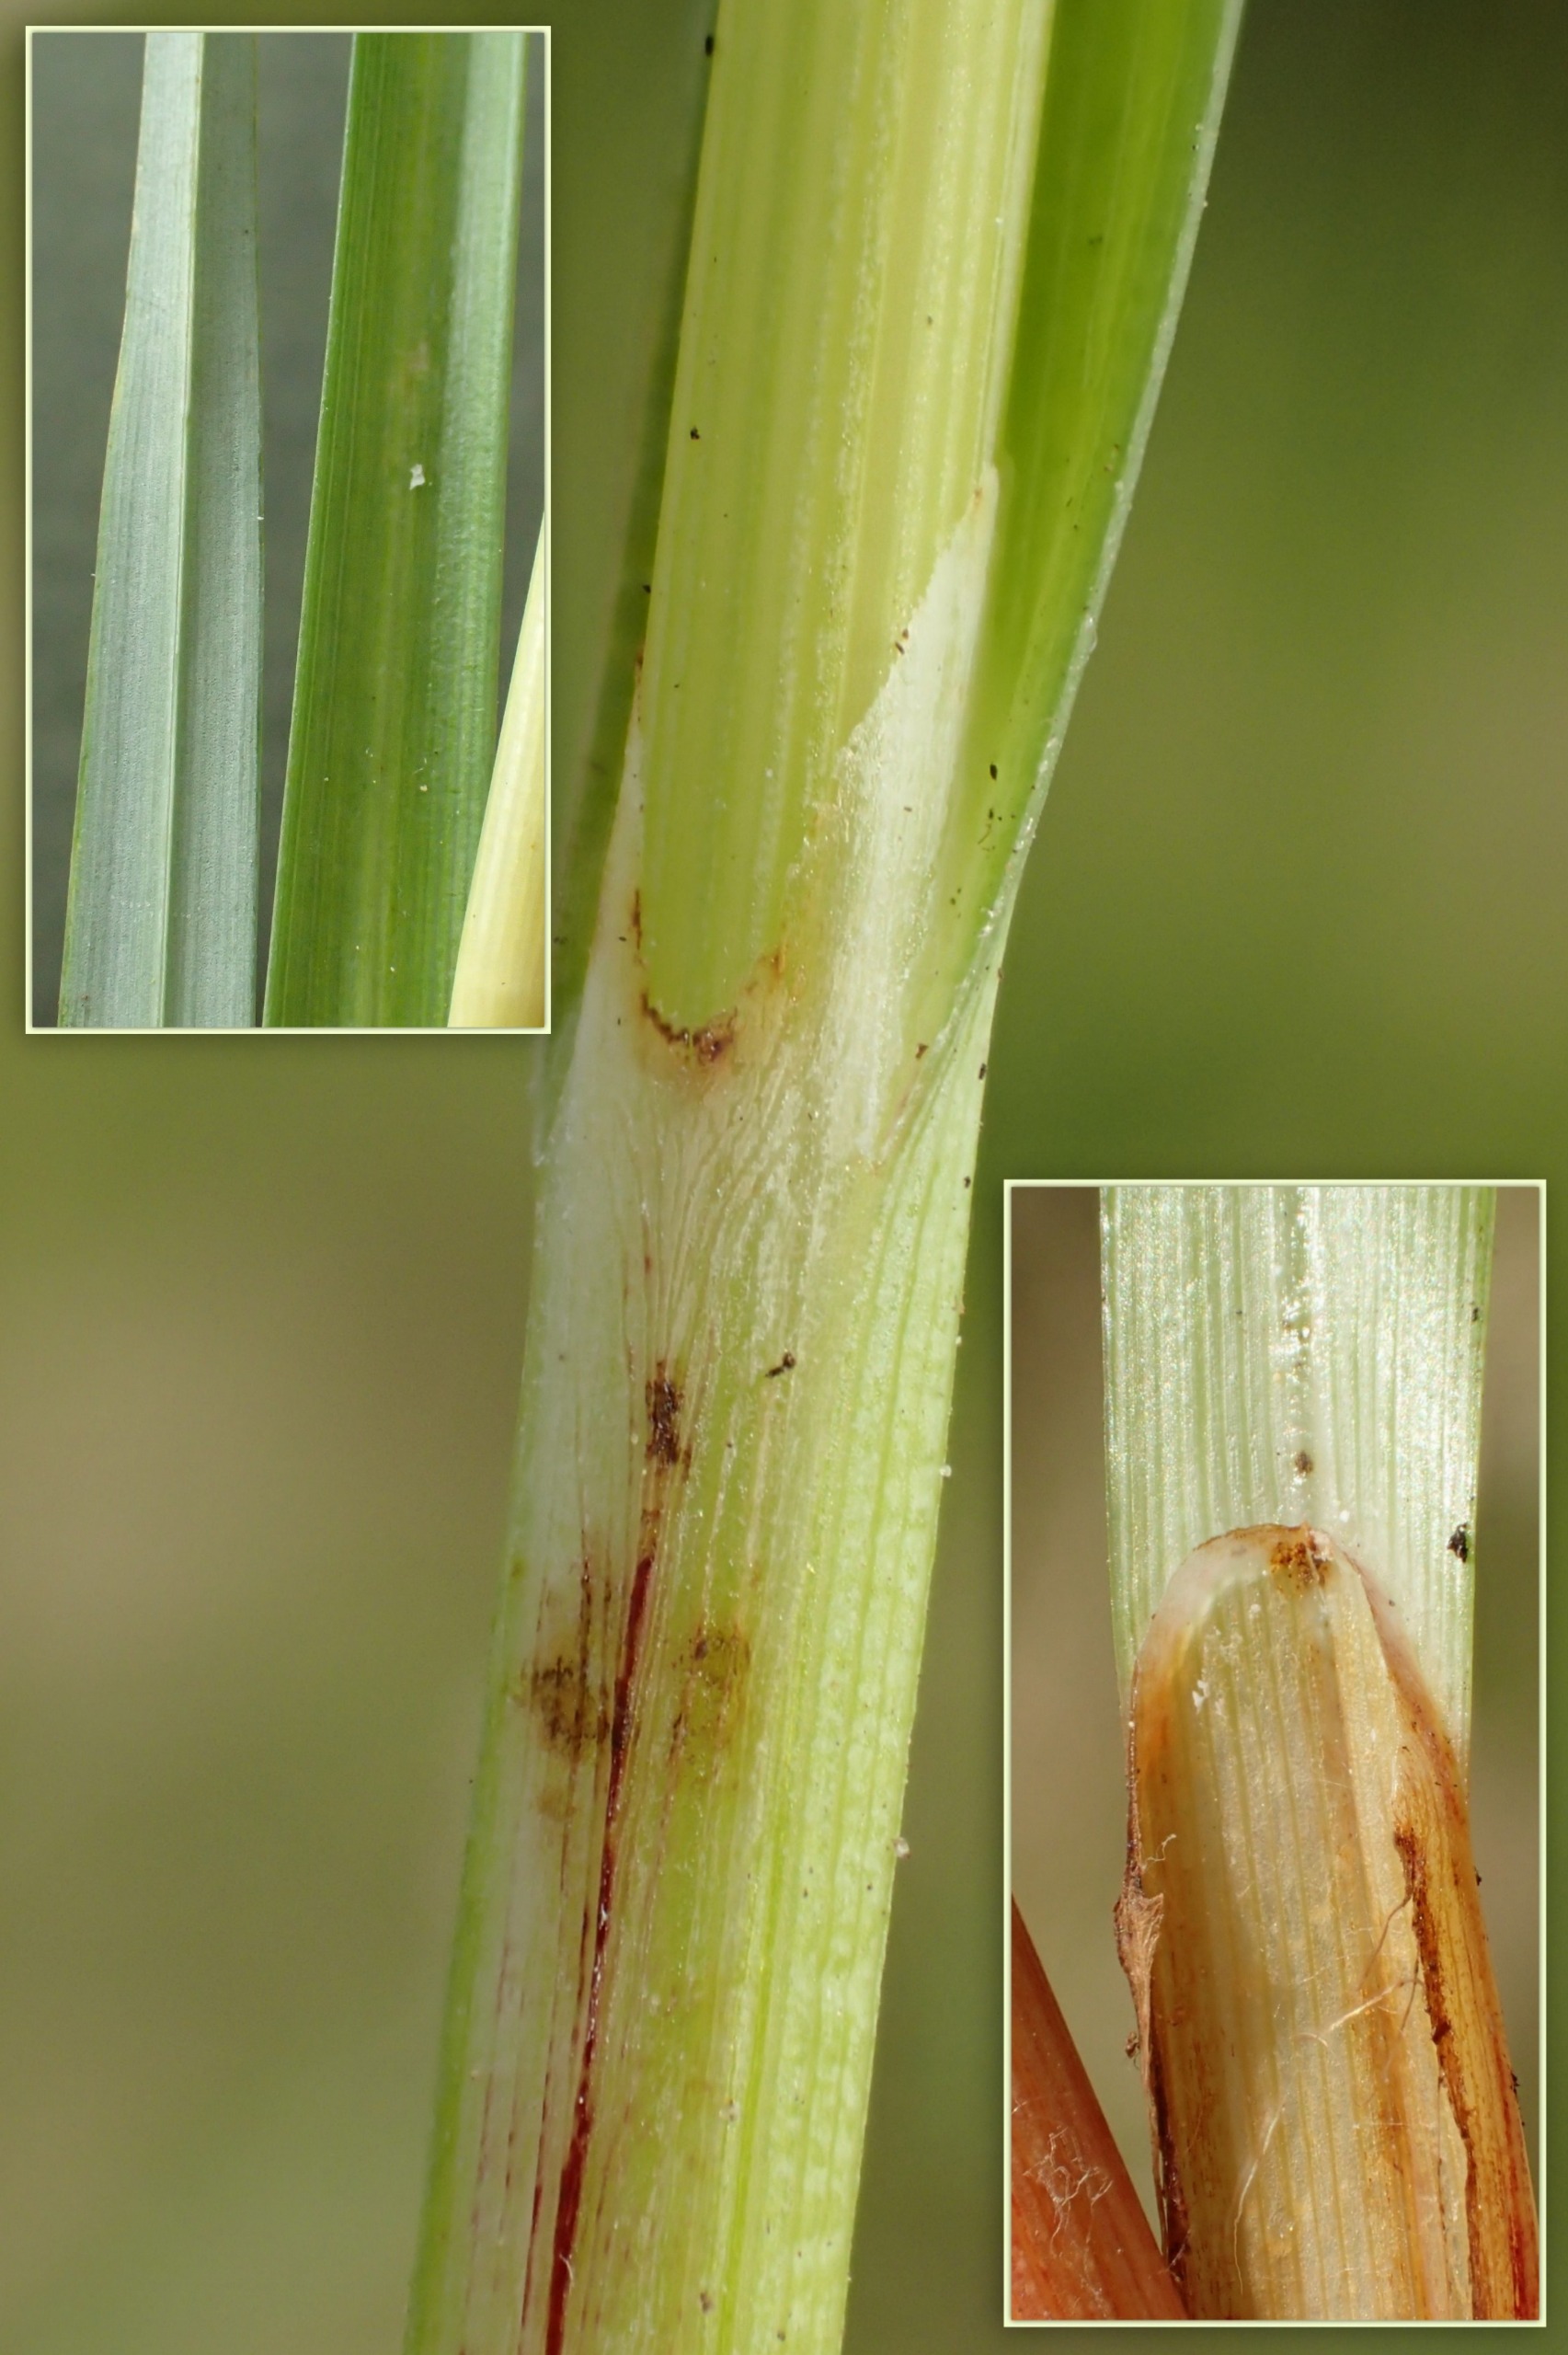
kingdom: Plantae
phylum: Tracheophyta
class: Liliopsida
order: Poales
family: Cyperaceae
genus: Carex
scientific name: Carex flacca
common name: Blågrøn star
